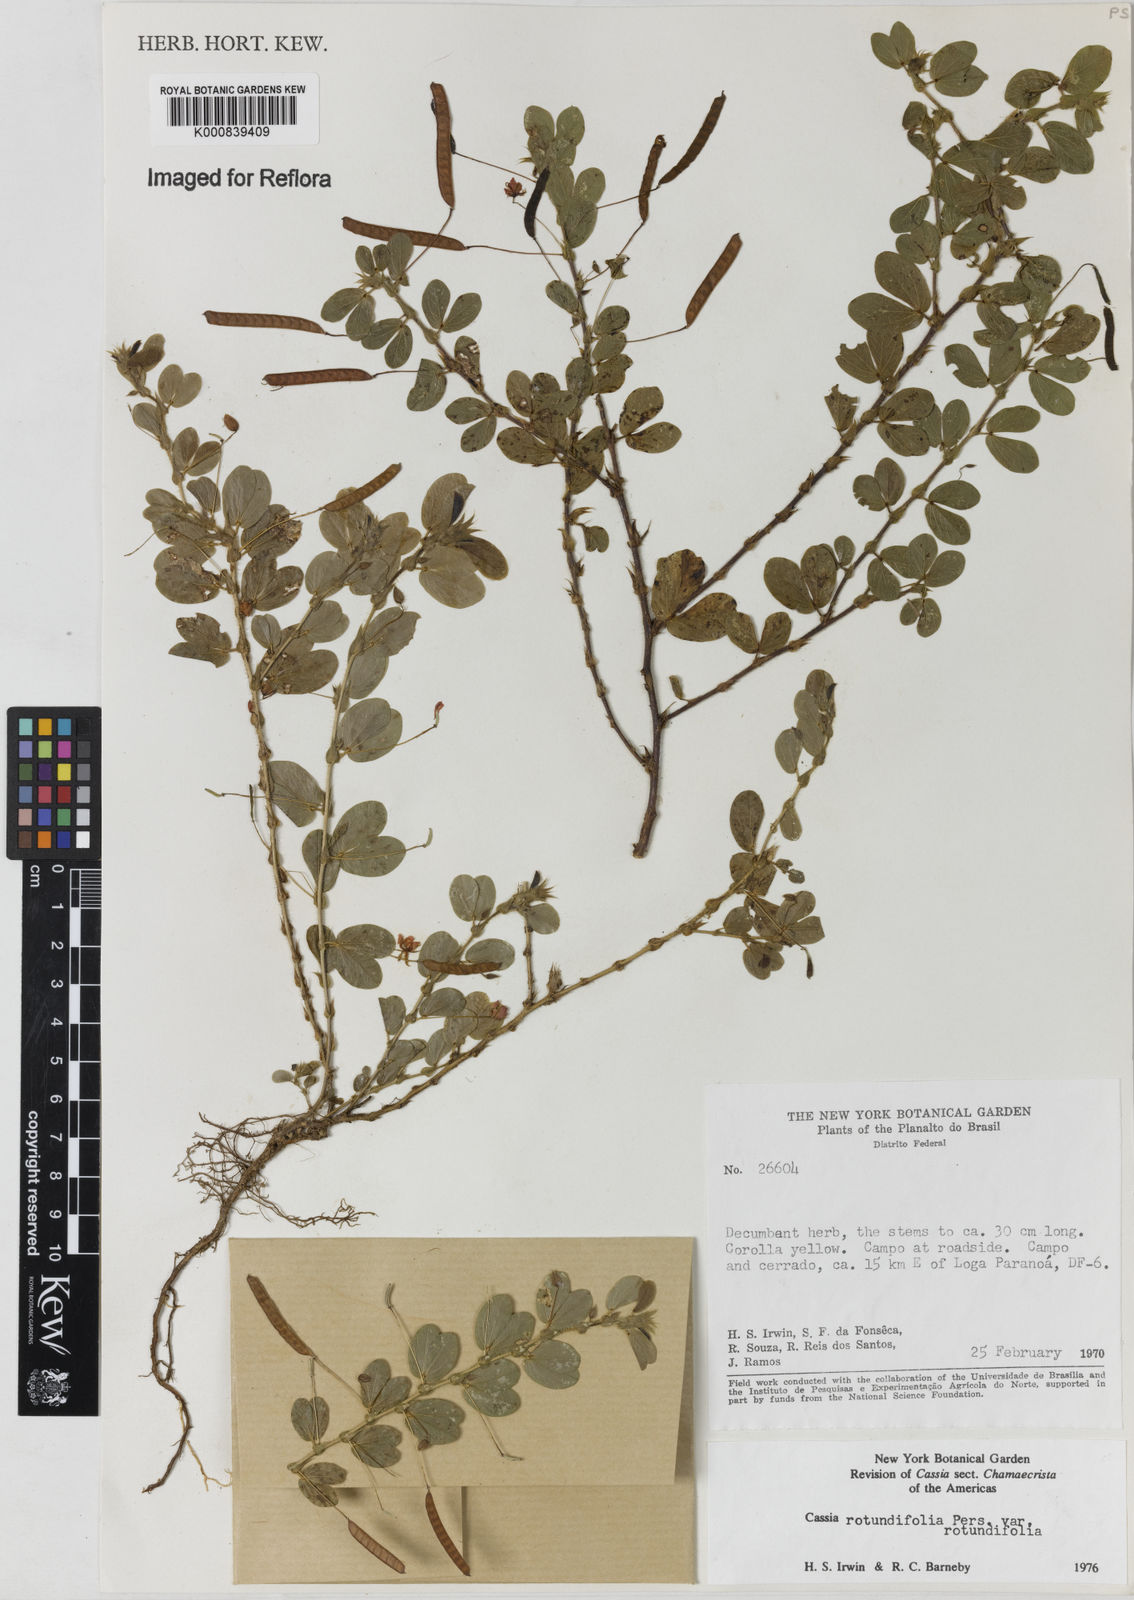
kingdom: Plantae
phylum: Tracheophyta
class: Magnoliopsida
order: Fabales
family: Fabaceae
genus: Chamaecrista
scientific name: Chamaecrista rotundifolia
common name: Round-leaf cassia
